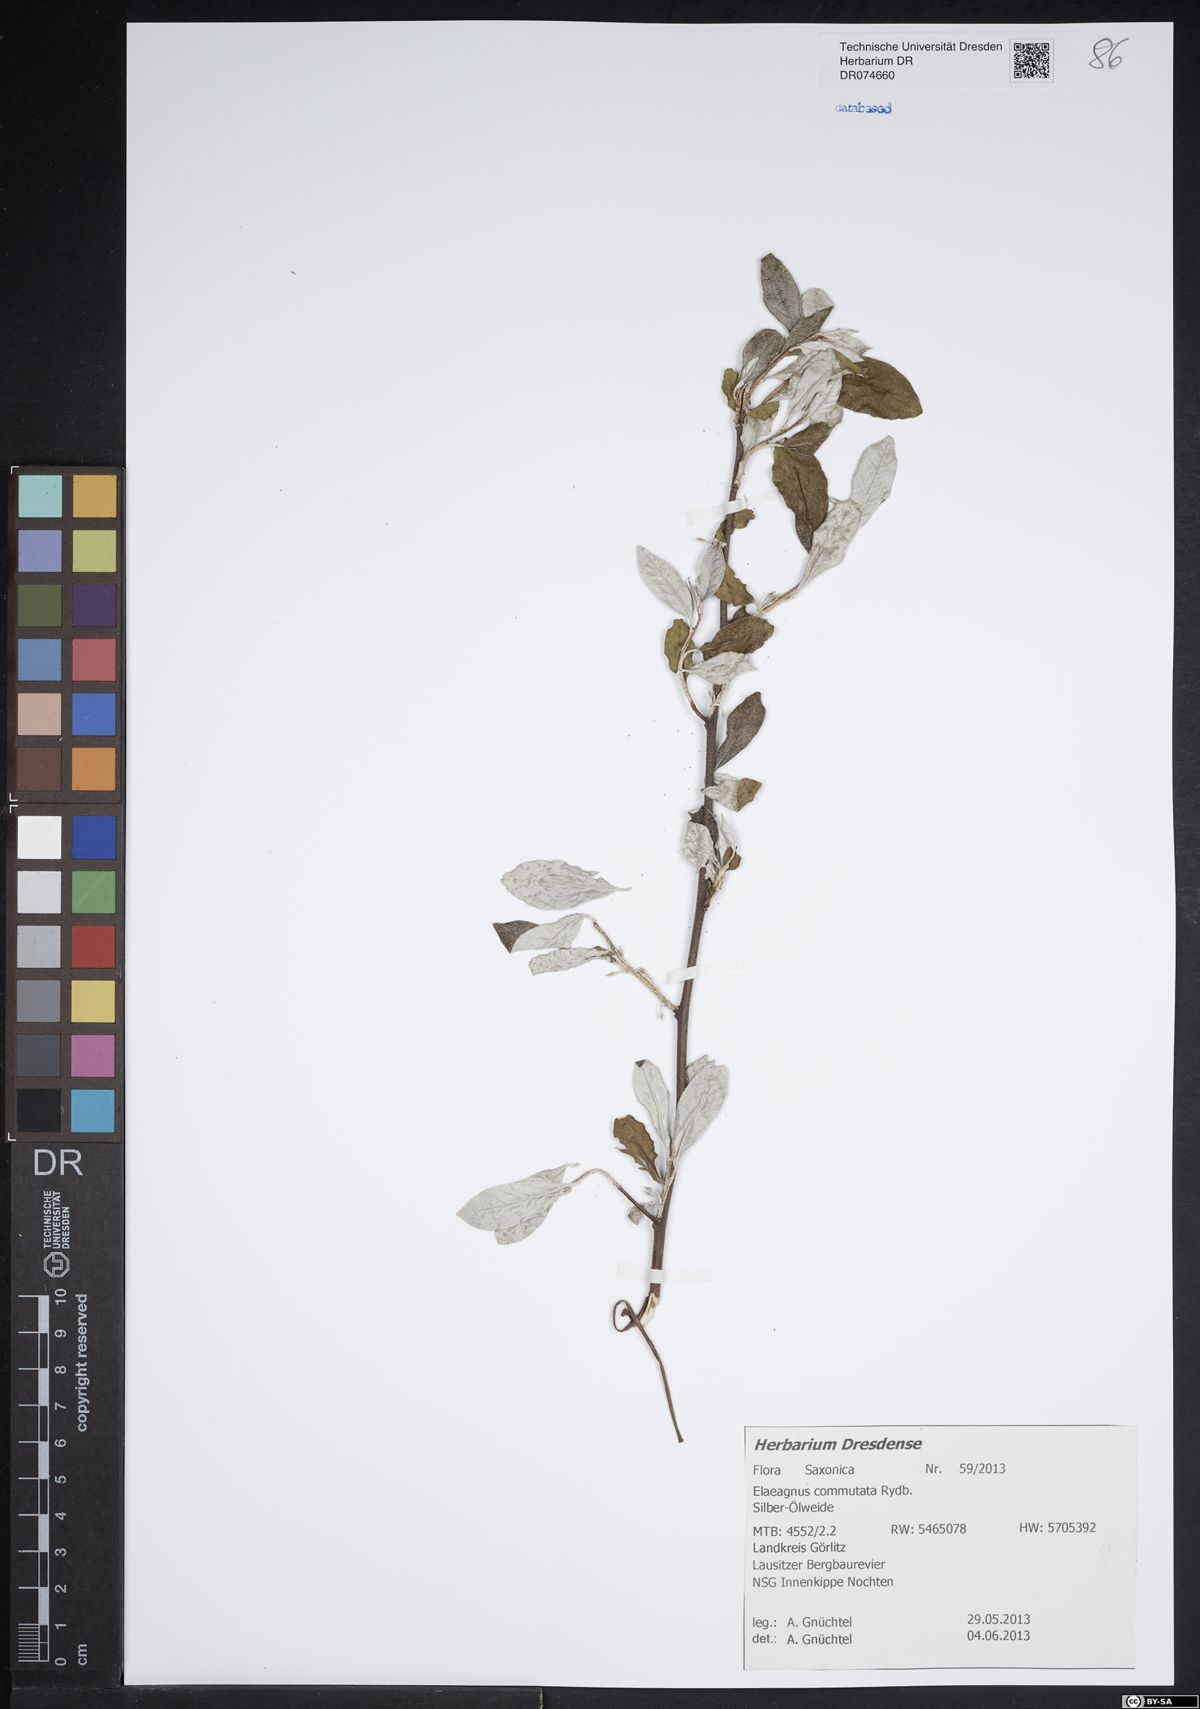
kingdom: Plantae
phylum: Tracheophyta
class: Magnoliopsida
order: Rosales
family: Elaeagnaceae
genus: Elaeagnus
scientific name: Elaeagnus commutata
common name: Silverberry
